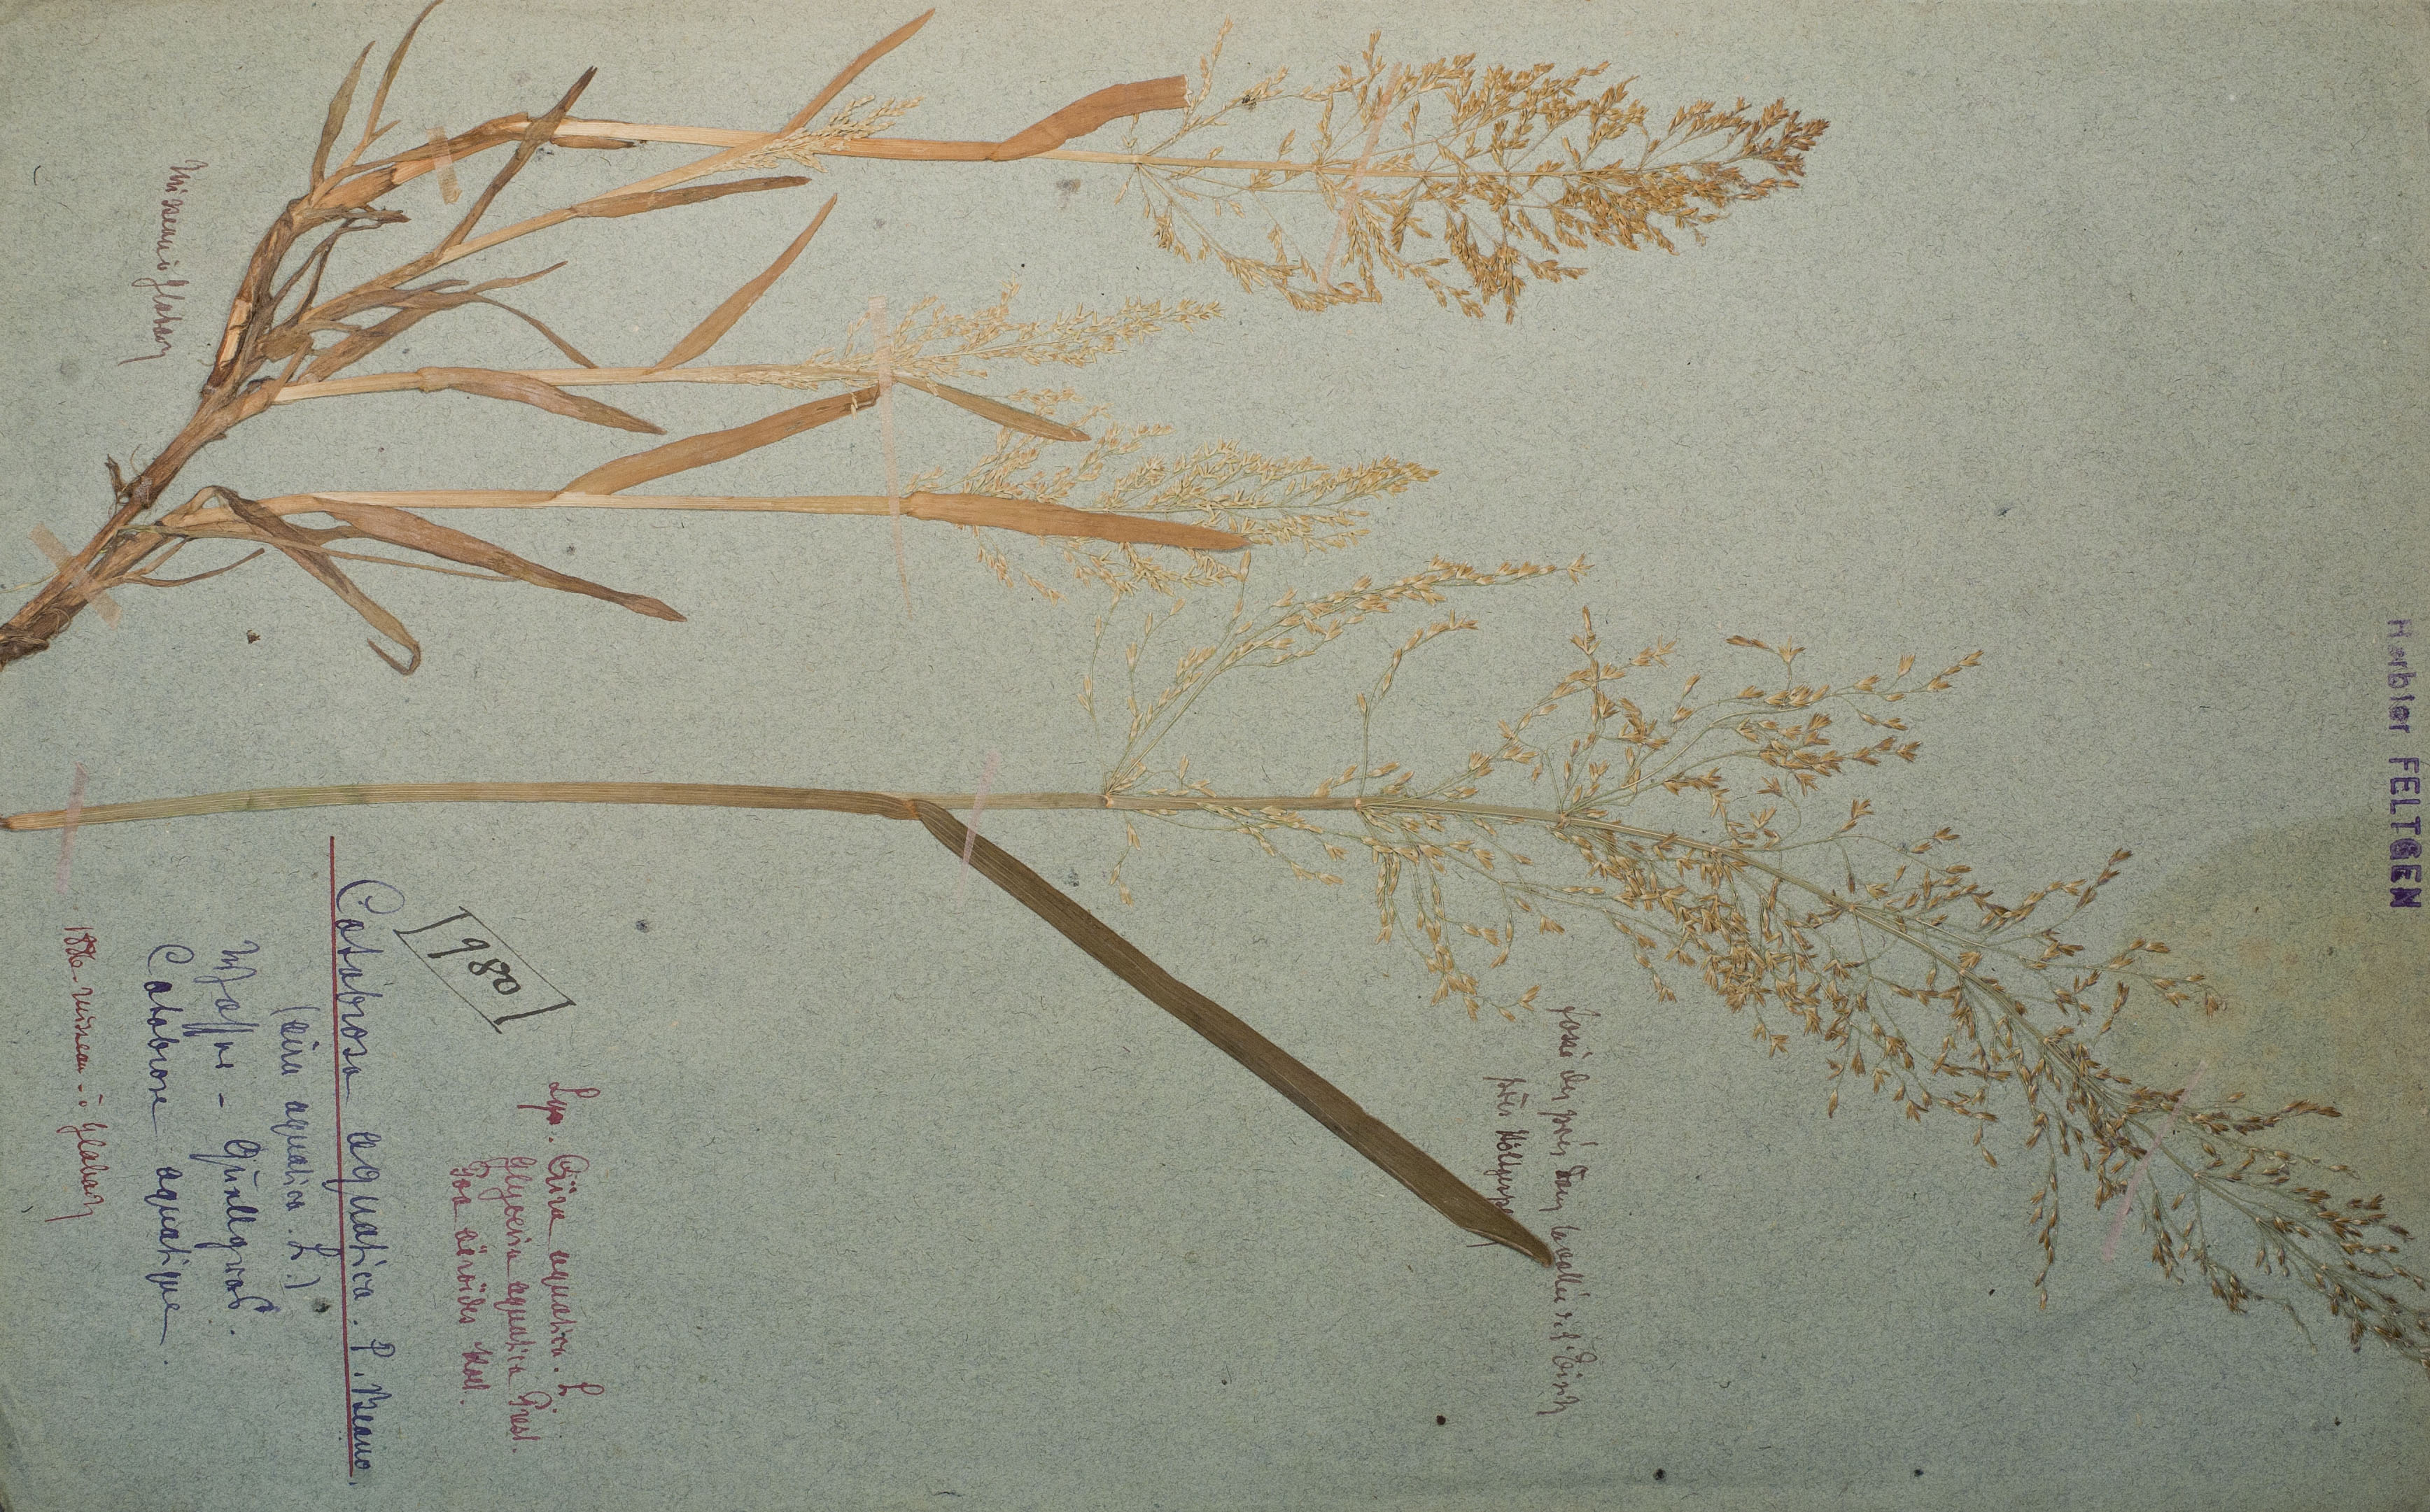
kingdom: Plantae
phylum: Tracheophyta
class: Liliopsida
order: Poales
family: Poaceae
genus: Catabrosa
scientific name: Catabrosa aquatica
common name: Whorl-grass
